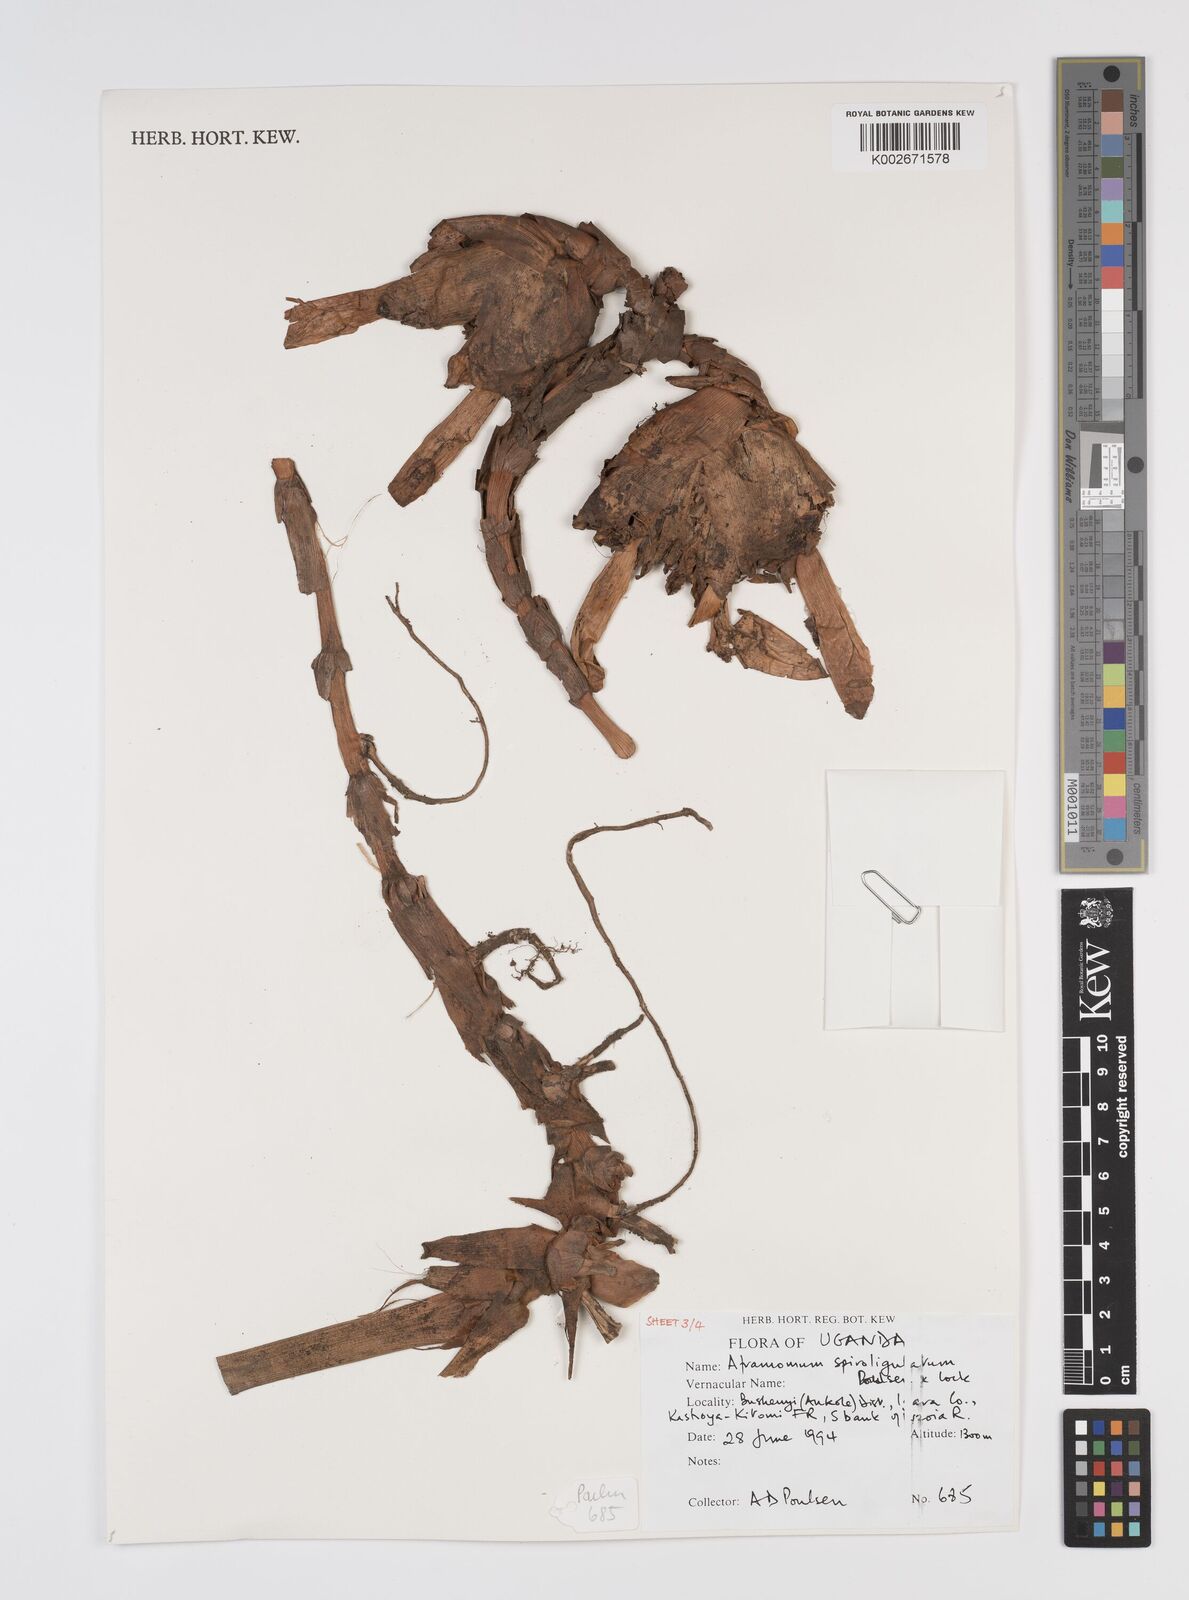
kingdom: Plantae
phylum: Tracheophyta
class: Liliopsida
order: Zingiberales
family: Zingiberaceae
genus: Aframomum
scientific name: Aframomum spiroligulatum
